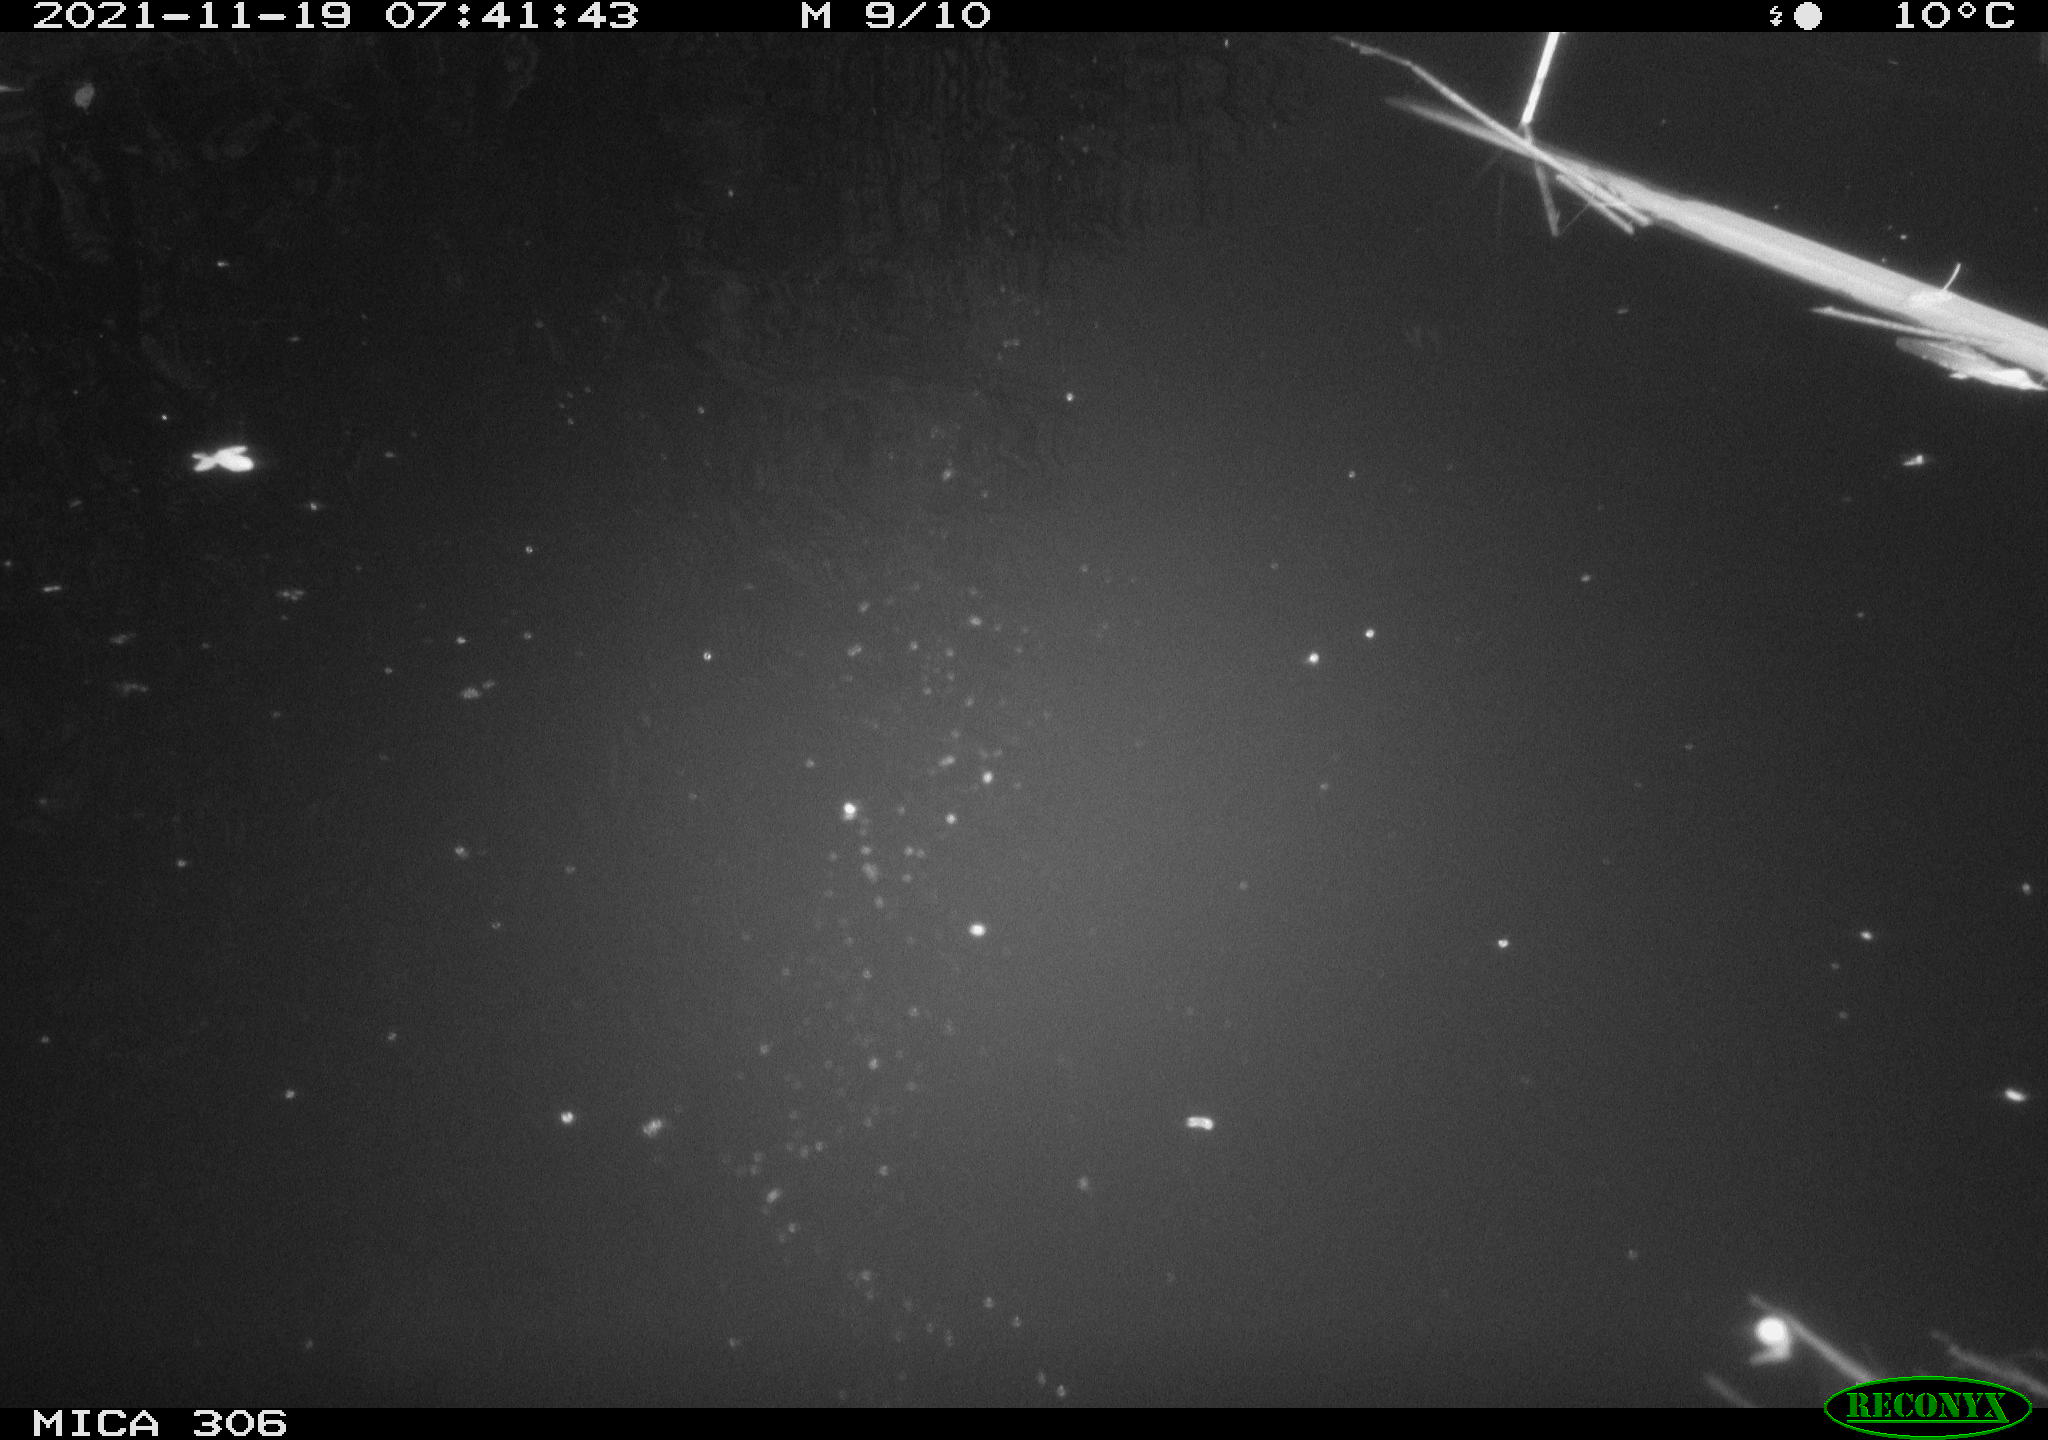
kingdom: Animalia
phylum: Chordata
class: Aves
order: Gruiformes
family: Rallidae
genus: Fulica
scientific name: Fulica atra
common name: Eurasian coot
